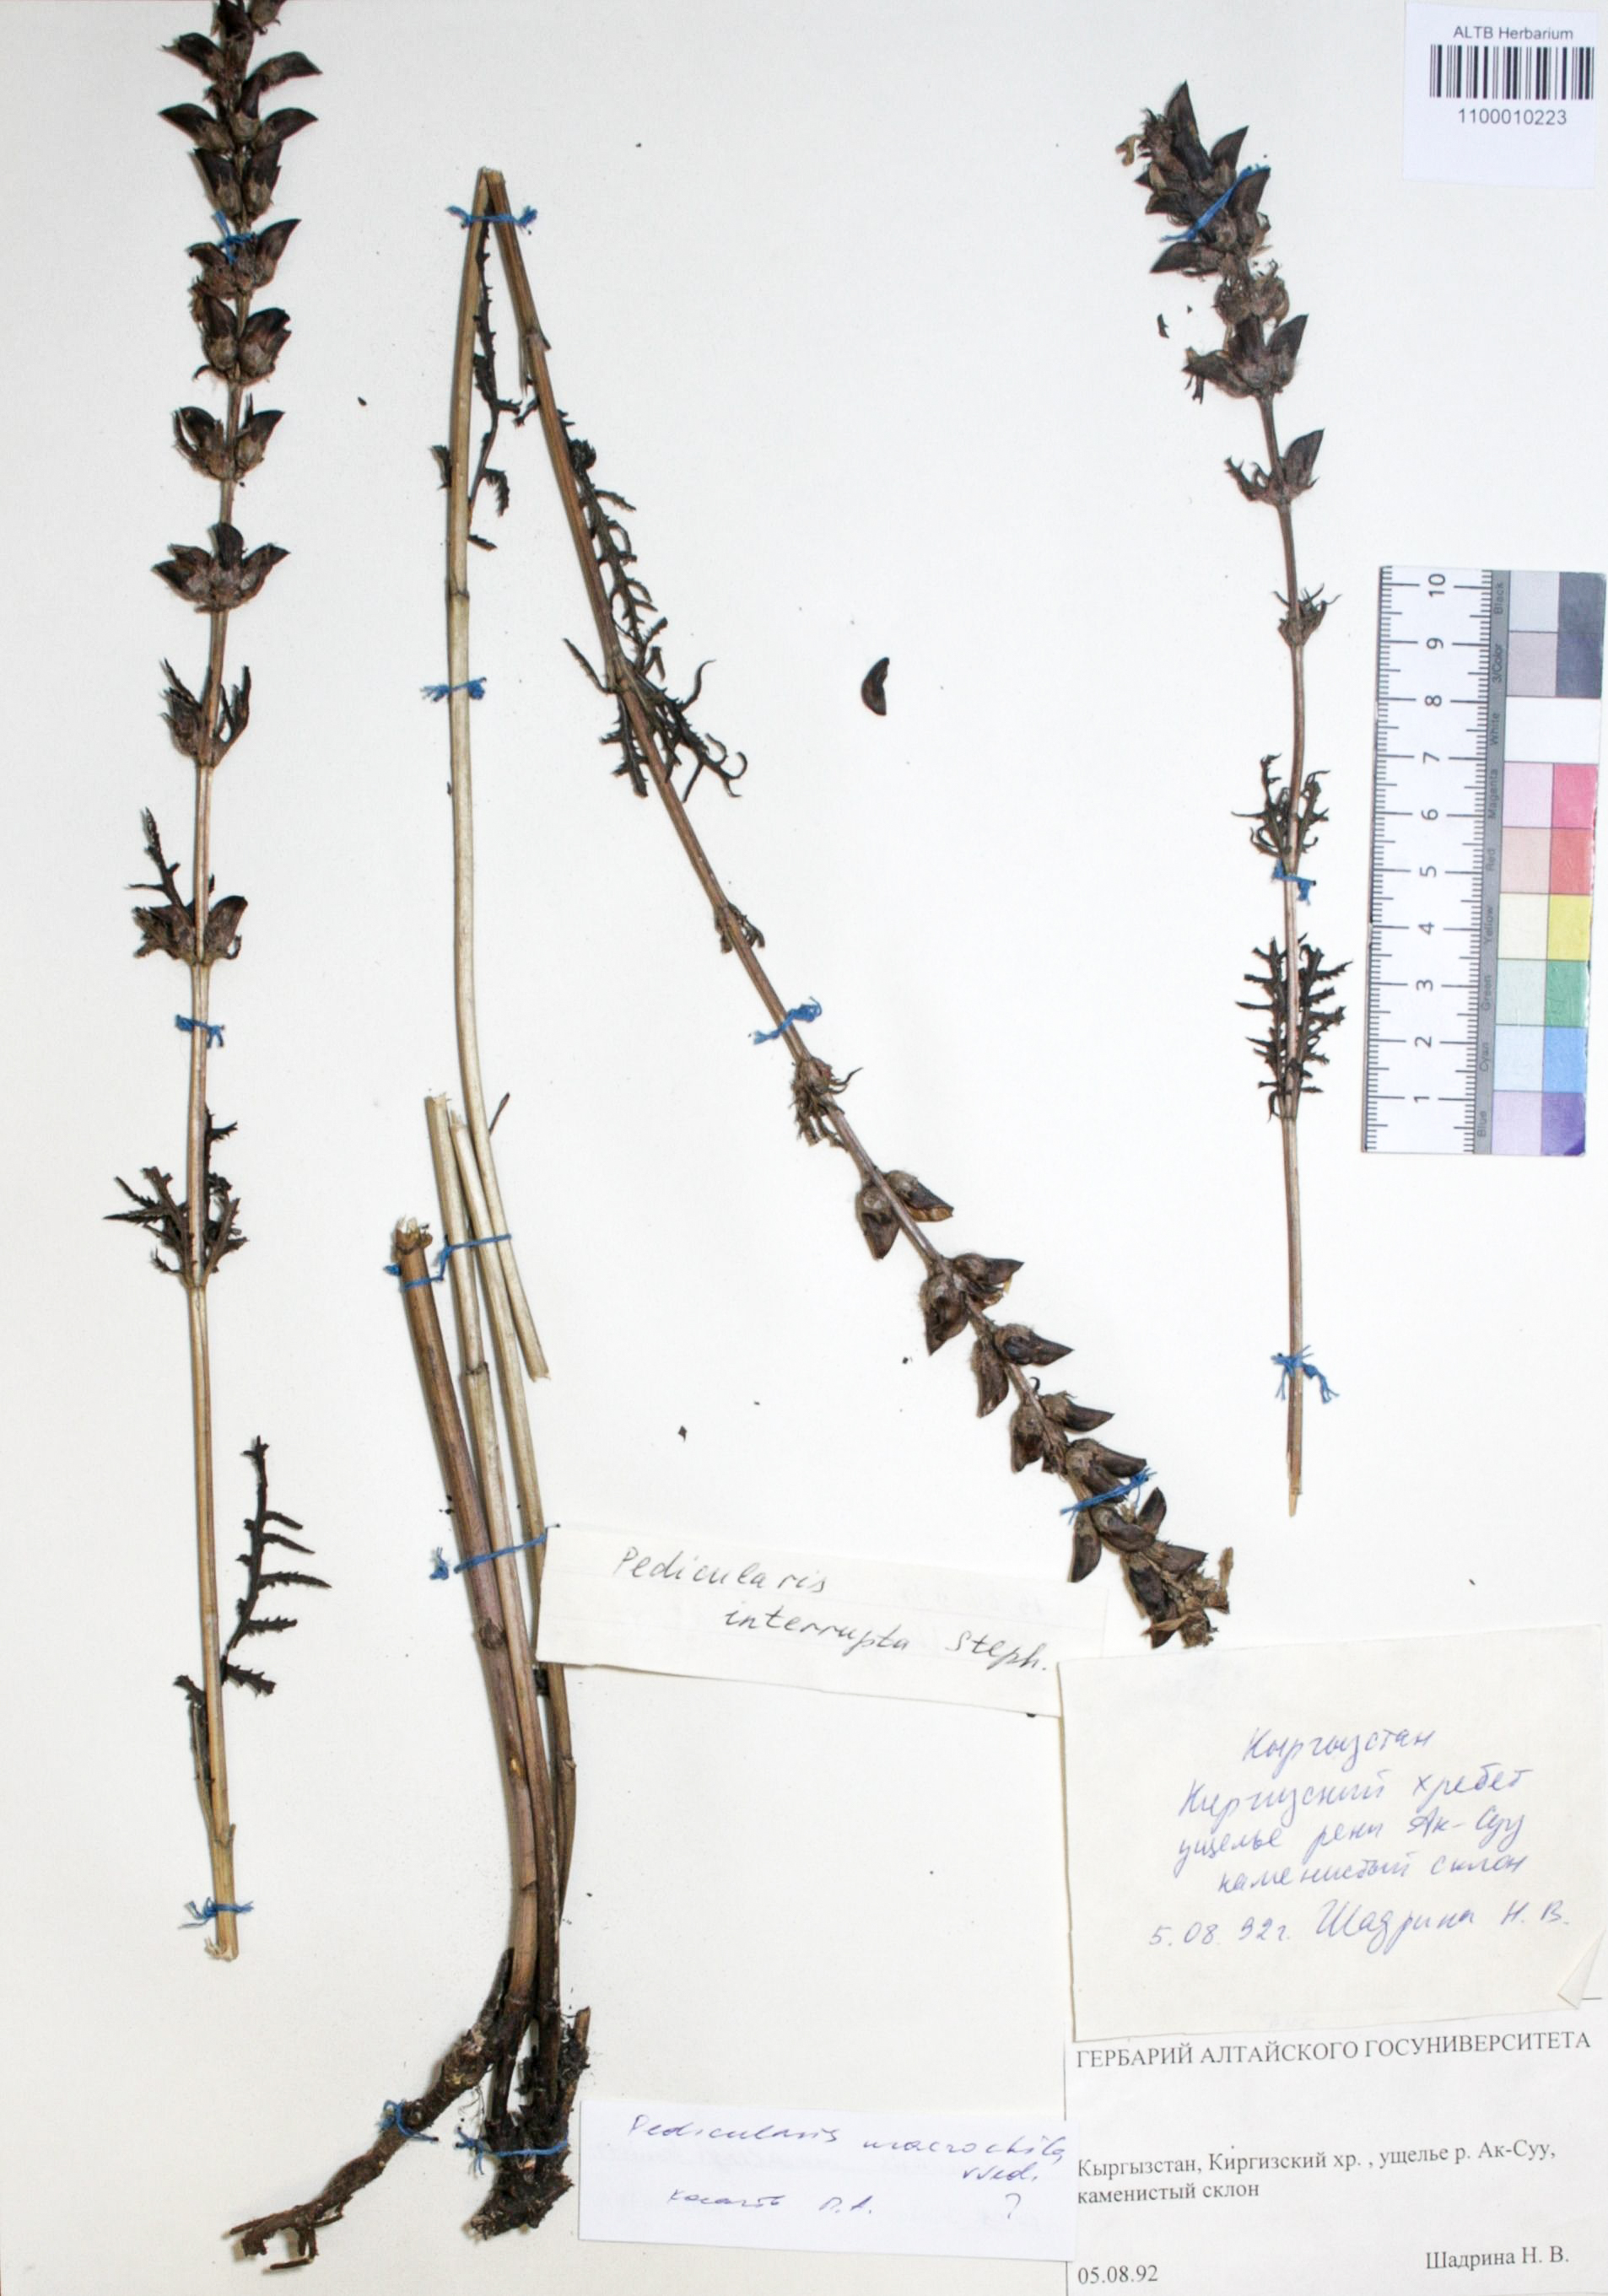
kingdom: Plantae
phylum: Tracheophyta
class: Magnoliopsida
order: Lamiales
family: Orobanchaceae
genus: Pedicularis
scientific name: Pedicularis interrupta
